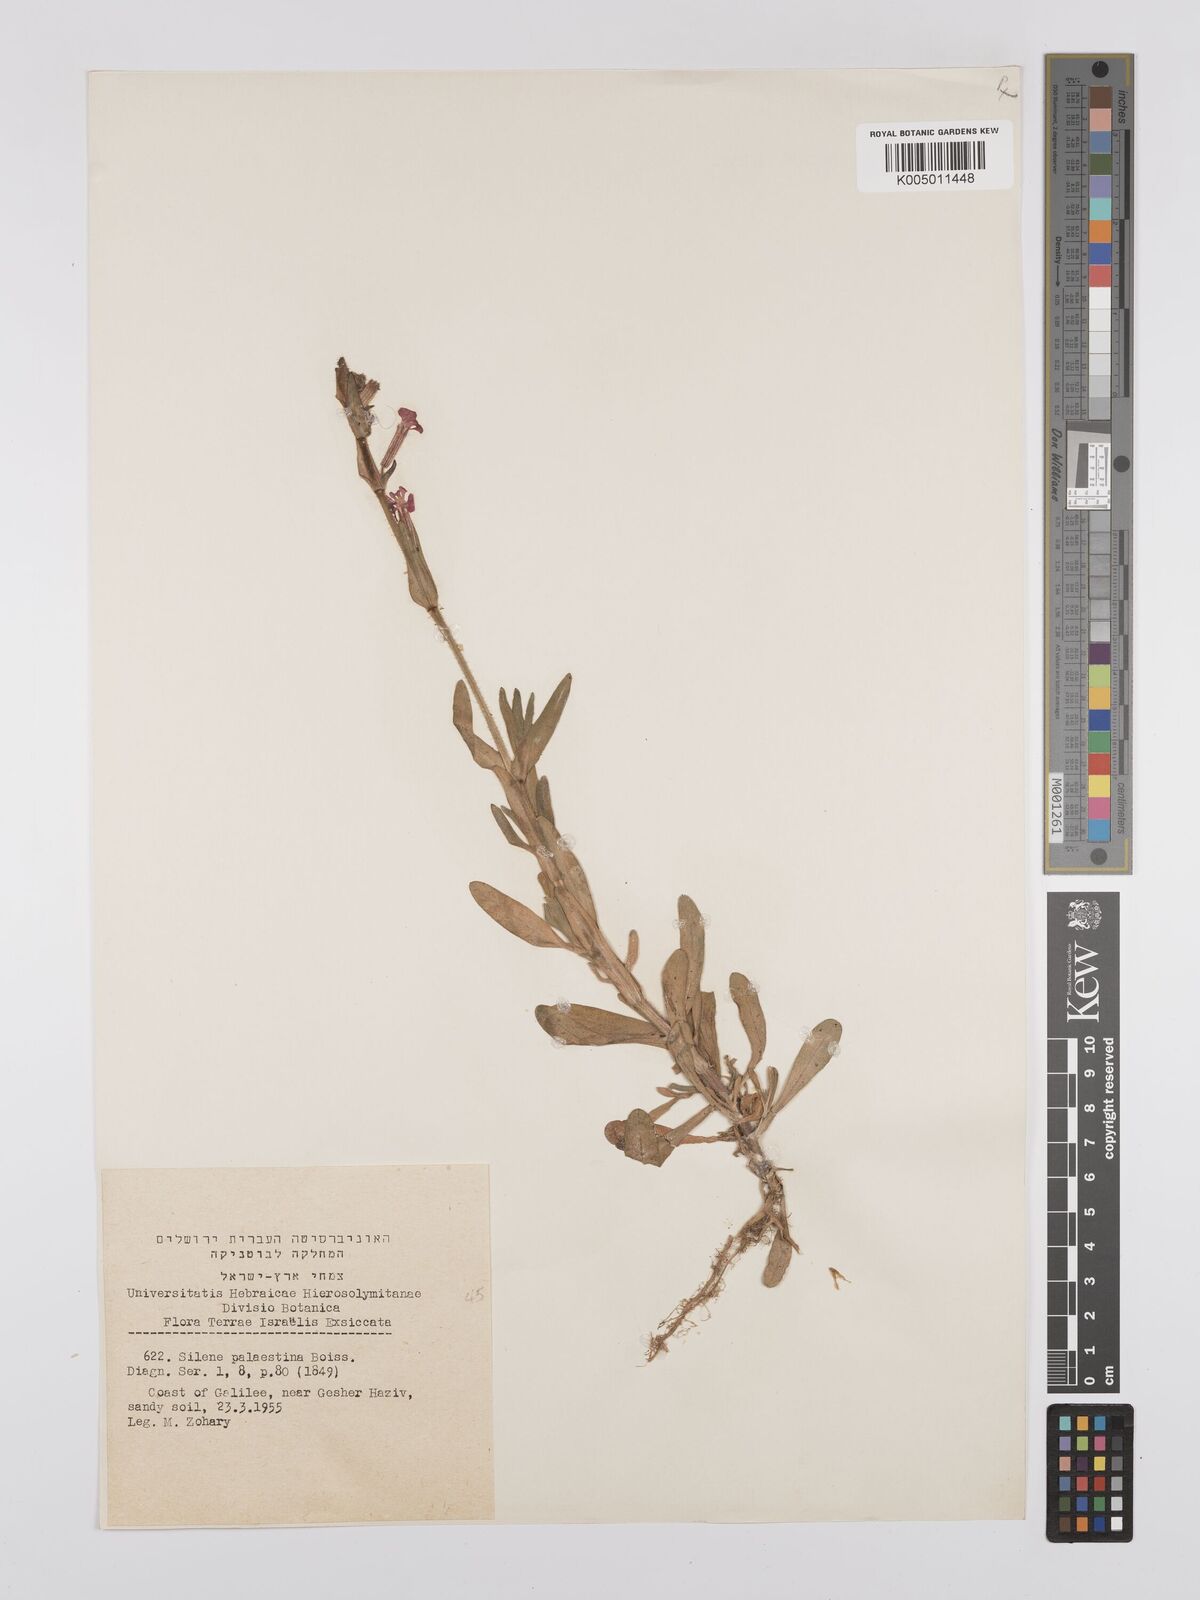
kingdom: Plantae
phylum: Tracheophyta
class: Magnoliopsida
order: Caryophyllales
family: Caryophyllaceae
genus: Silene
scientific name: Silene palaestina
